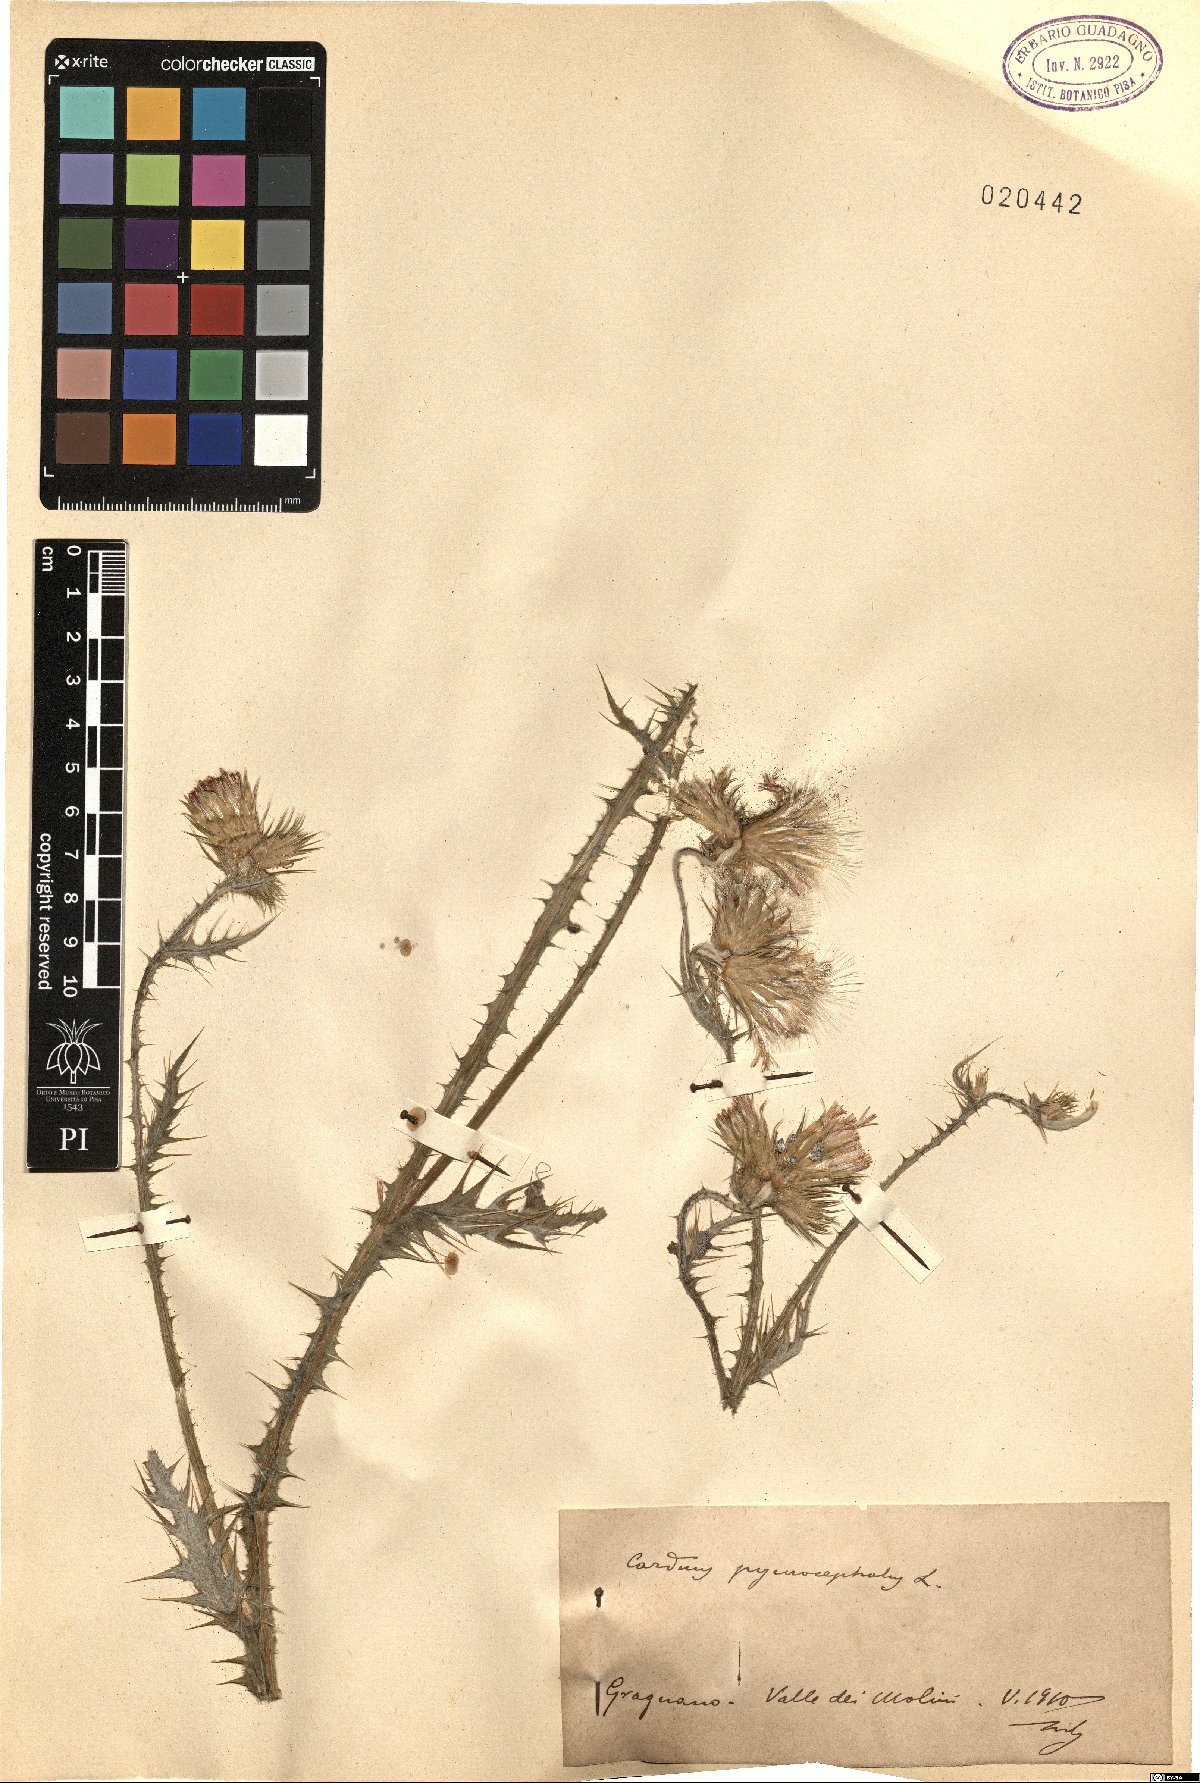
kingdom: Plantae
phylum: Tracheophyta
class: Magnoliopsida
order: Asterales
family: Asteraceae
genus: Carduus
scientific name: Carduus pycnocephalus
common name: Plymouth thistle
